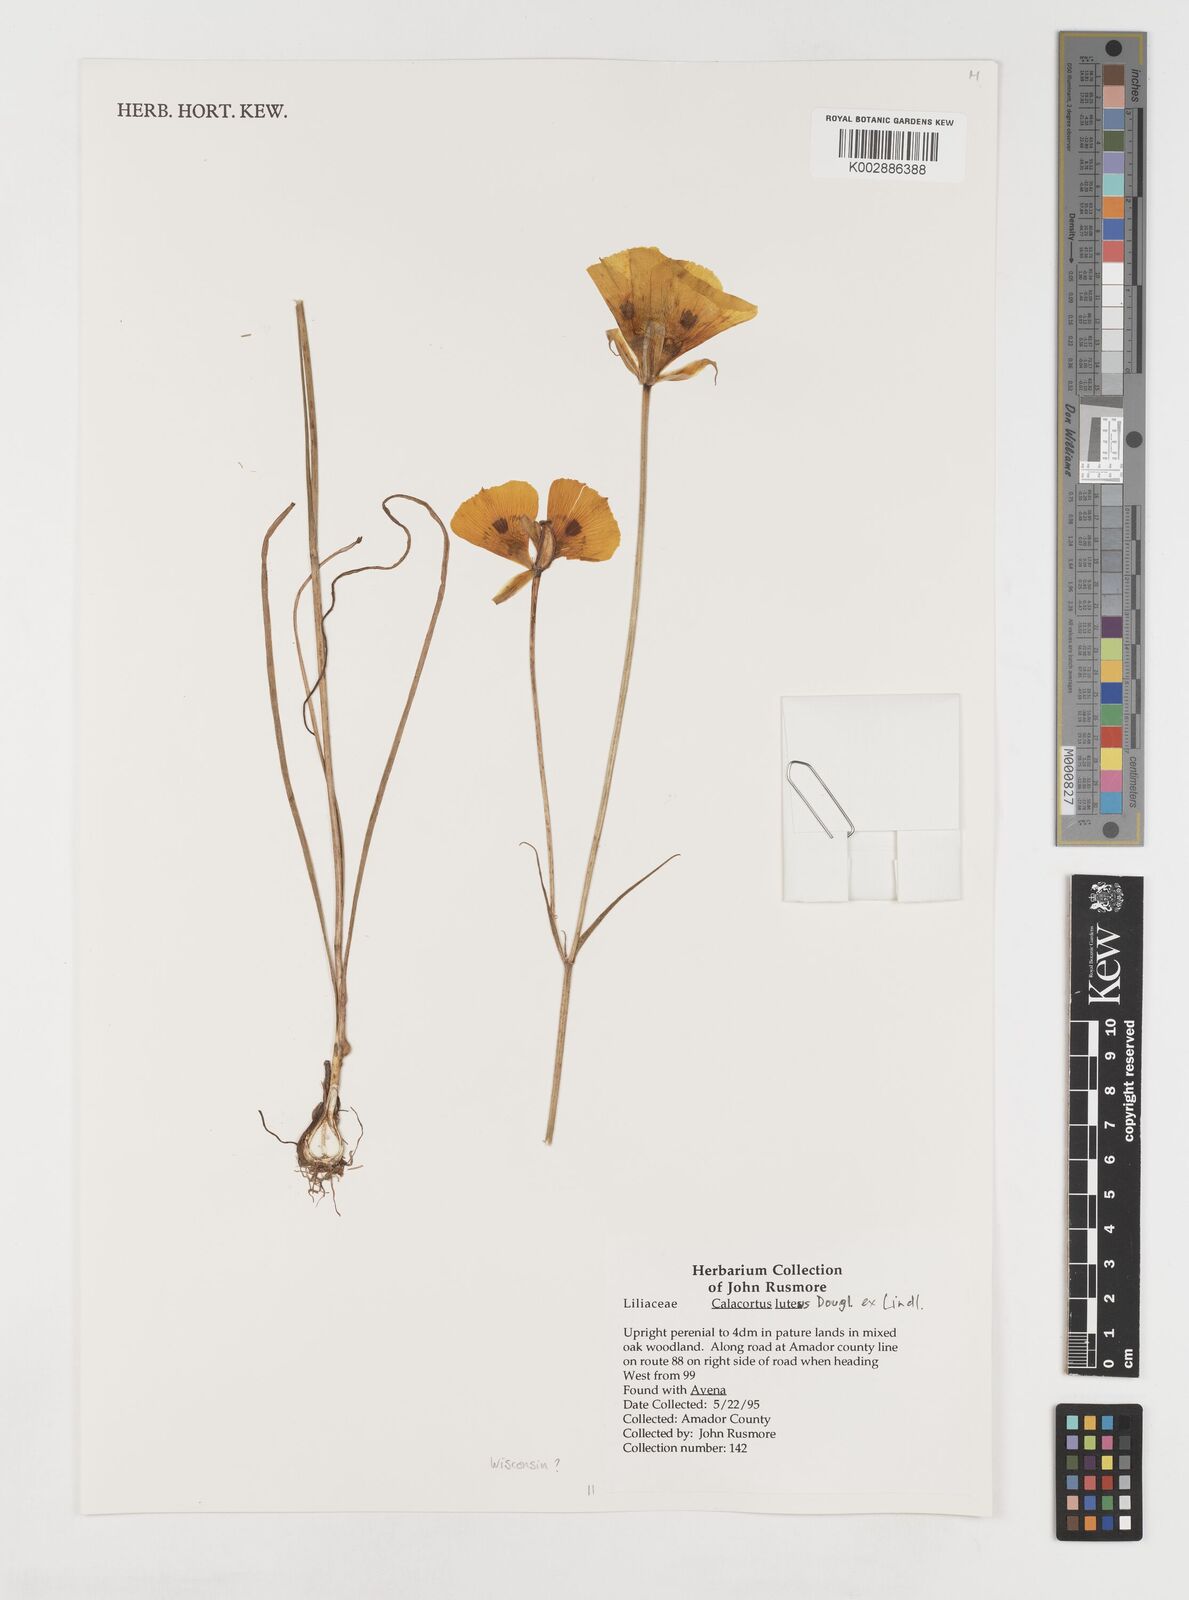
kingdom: Plantae
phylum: Tracheophyta
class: Liliopsida
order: Liliales
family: Liliaceae
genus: Calochortus
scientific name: Calochortus nuttallii
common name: Sego-lily
